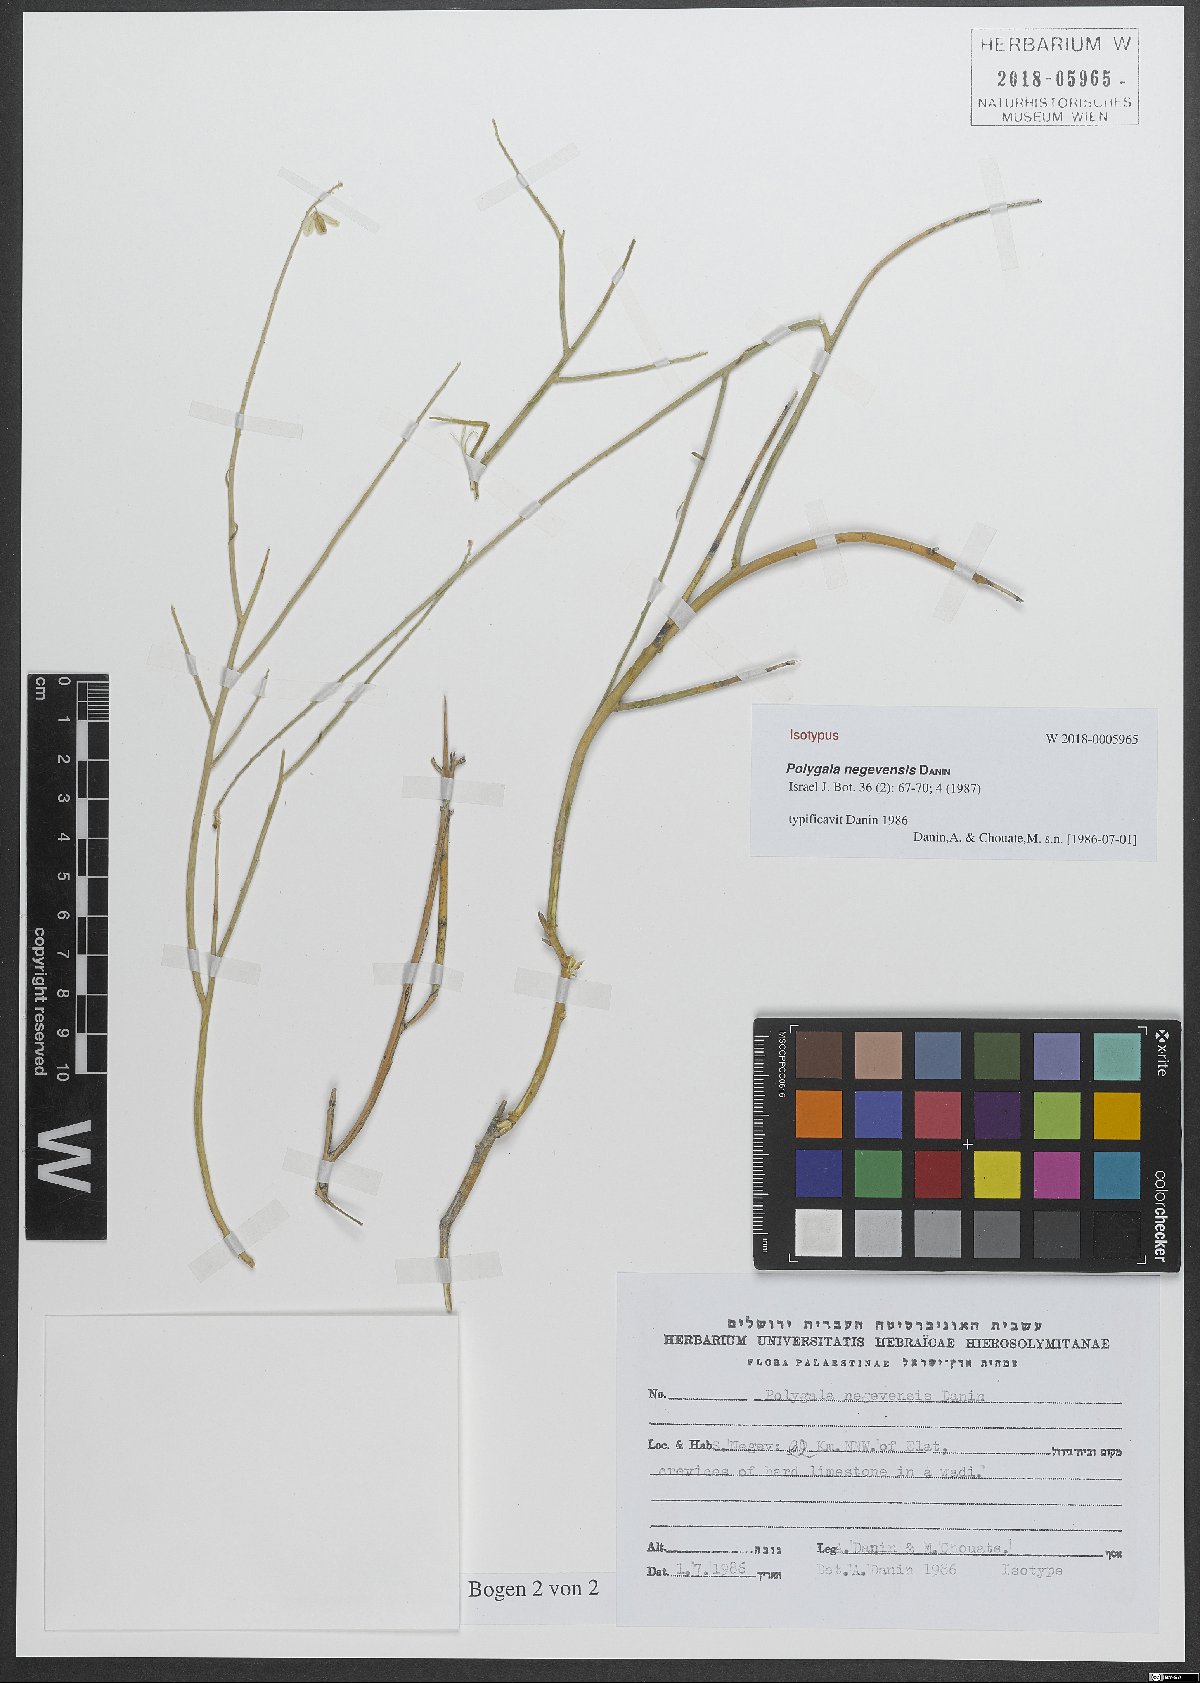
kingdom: Plantae
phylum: Tracheophyta
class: Magnoliopsida
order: Fabales
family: Polygalaceae
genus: Polygala
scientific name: Polygala sinaica
